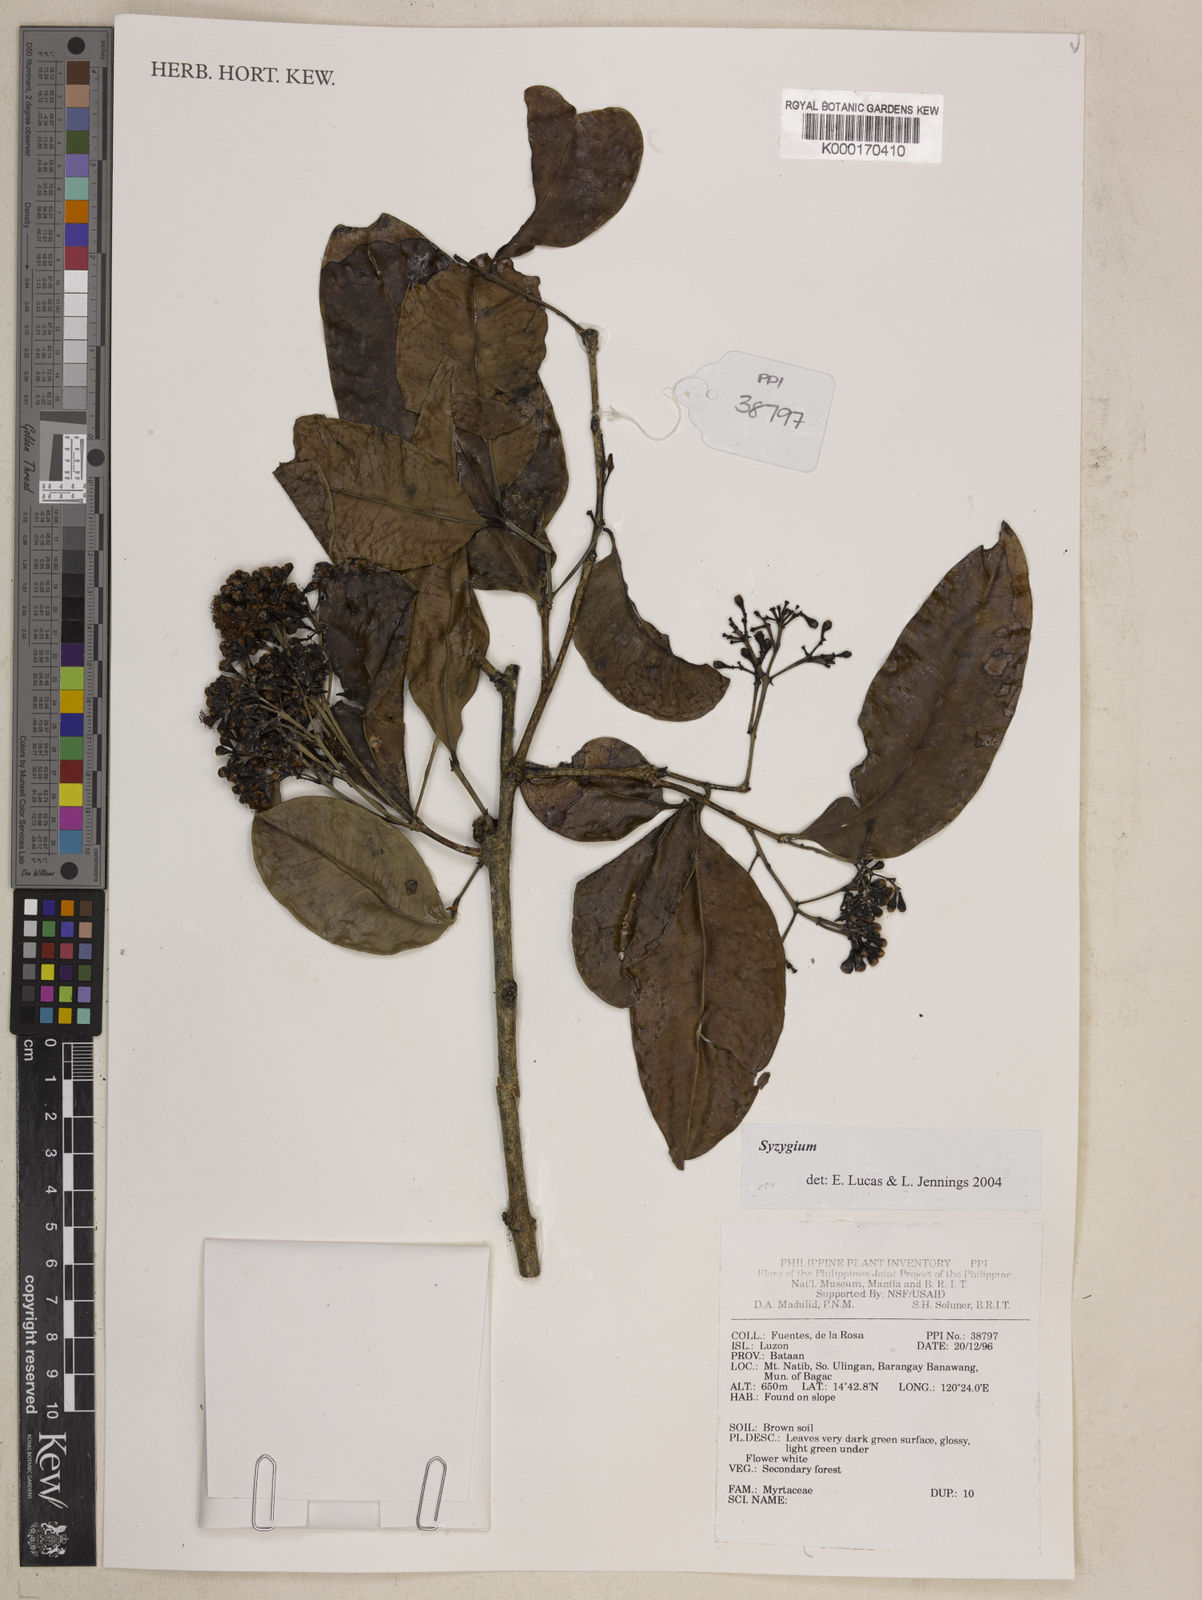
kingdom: Plantae
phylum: Tracheophyta
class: Magnoliopsida
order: Myrtales
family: Myrtaceae
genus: Syzygium
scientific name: Syzygium
